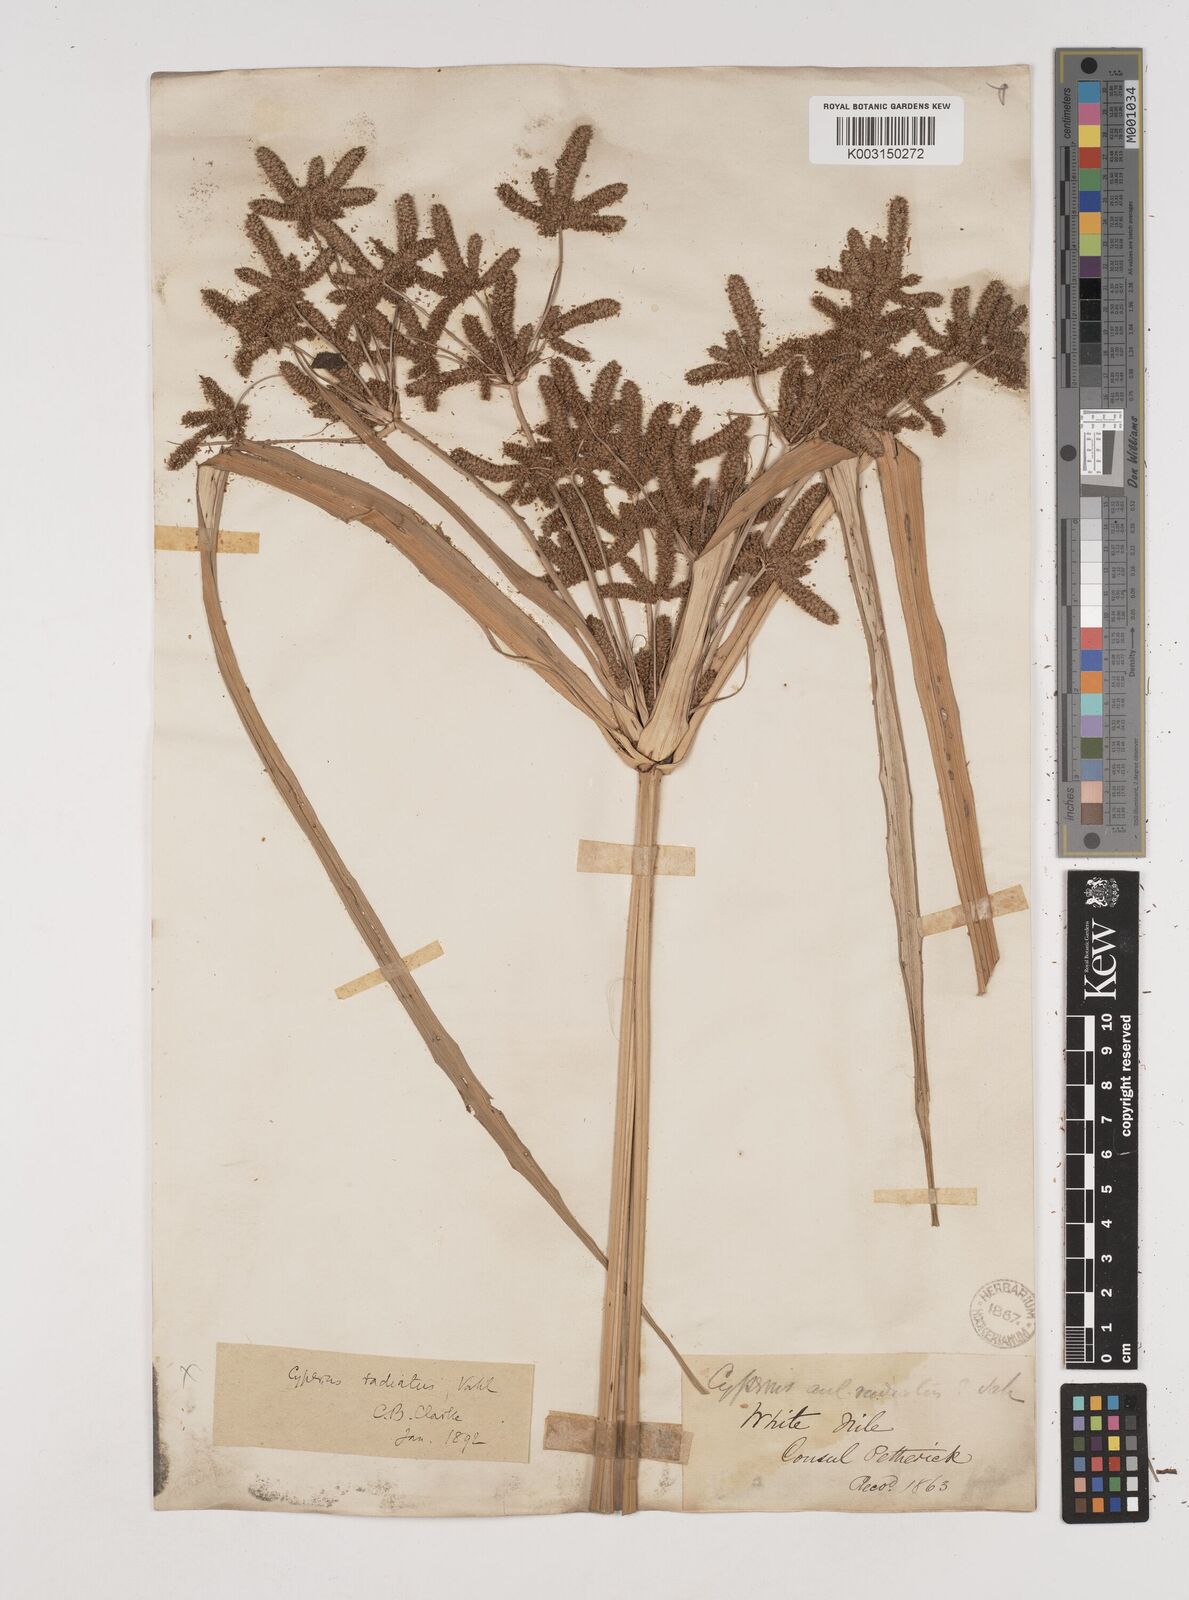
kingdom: Plantae
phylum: Tracheophyta
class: Liliopsida
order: Poales
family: Cyperaceae
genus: Cyperus
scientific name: Cyperus alopecuroides
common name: Foxtail flatsedge
